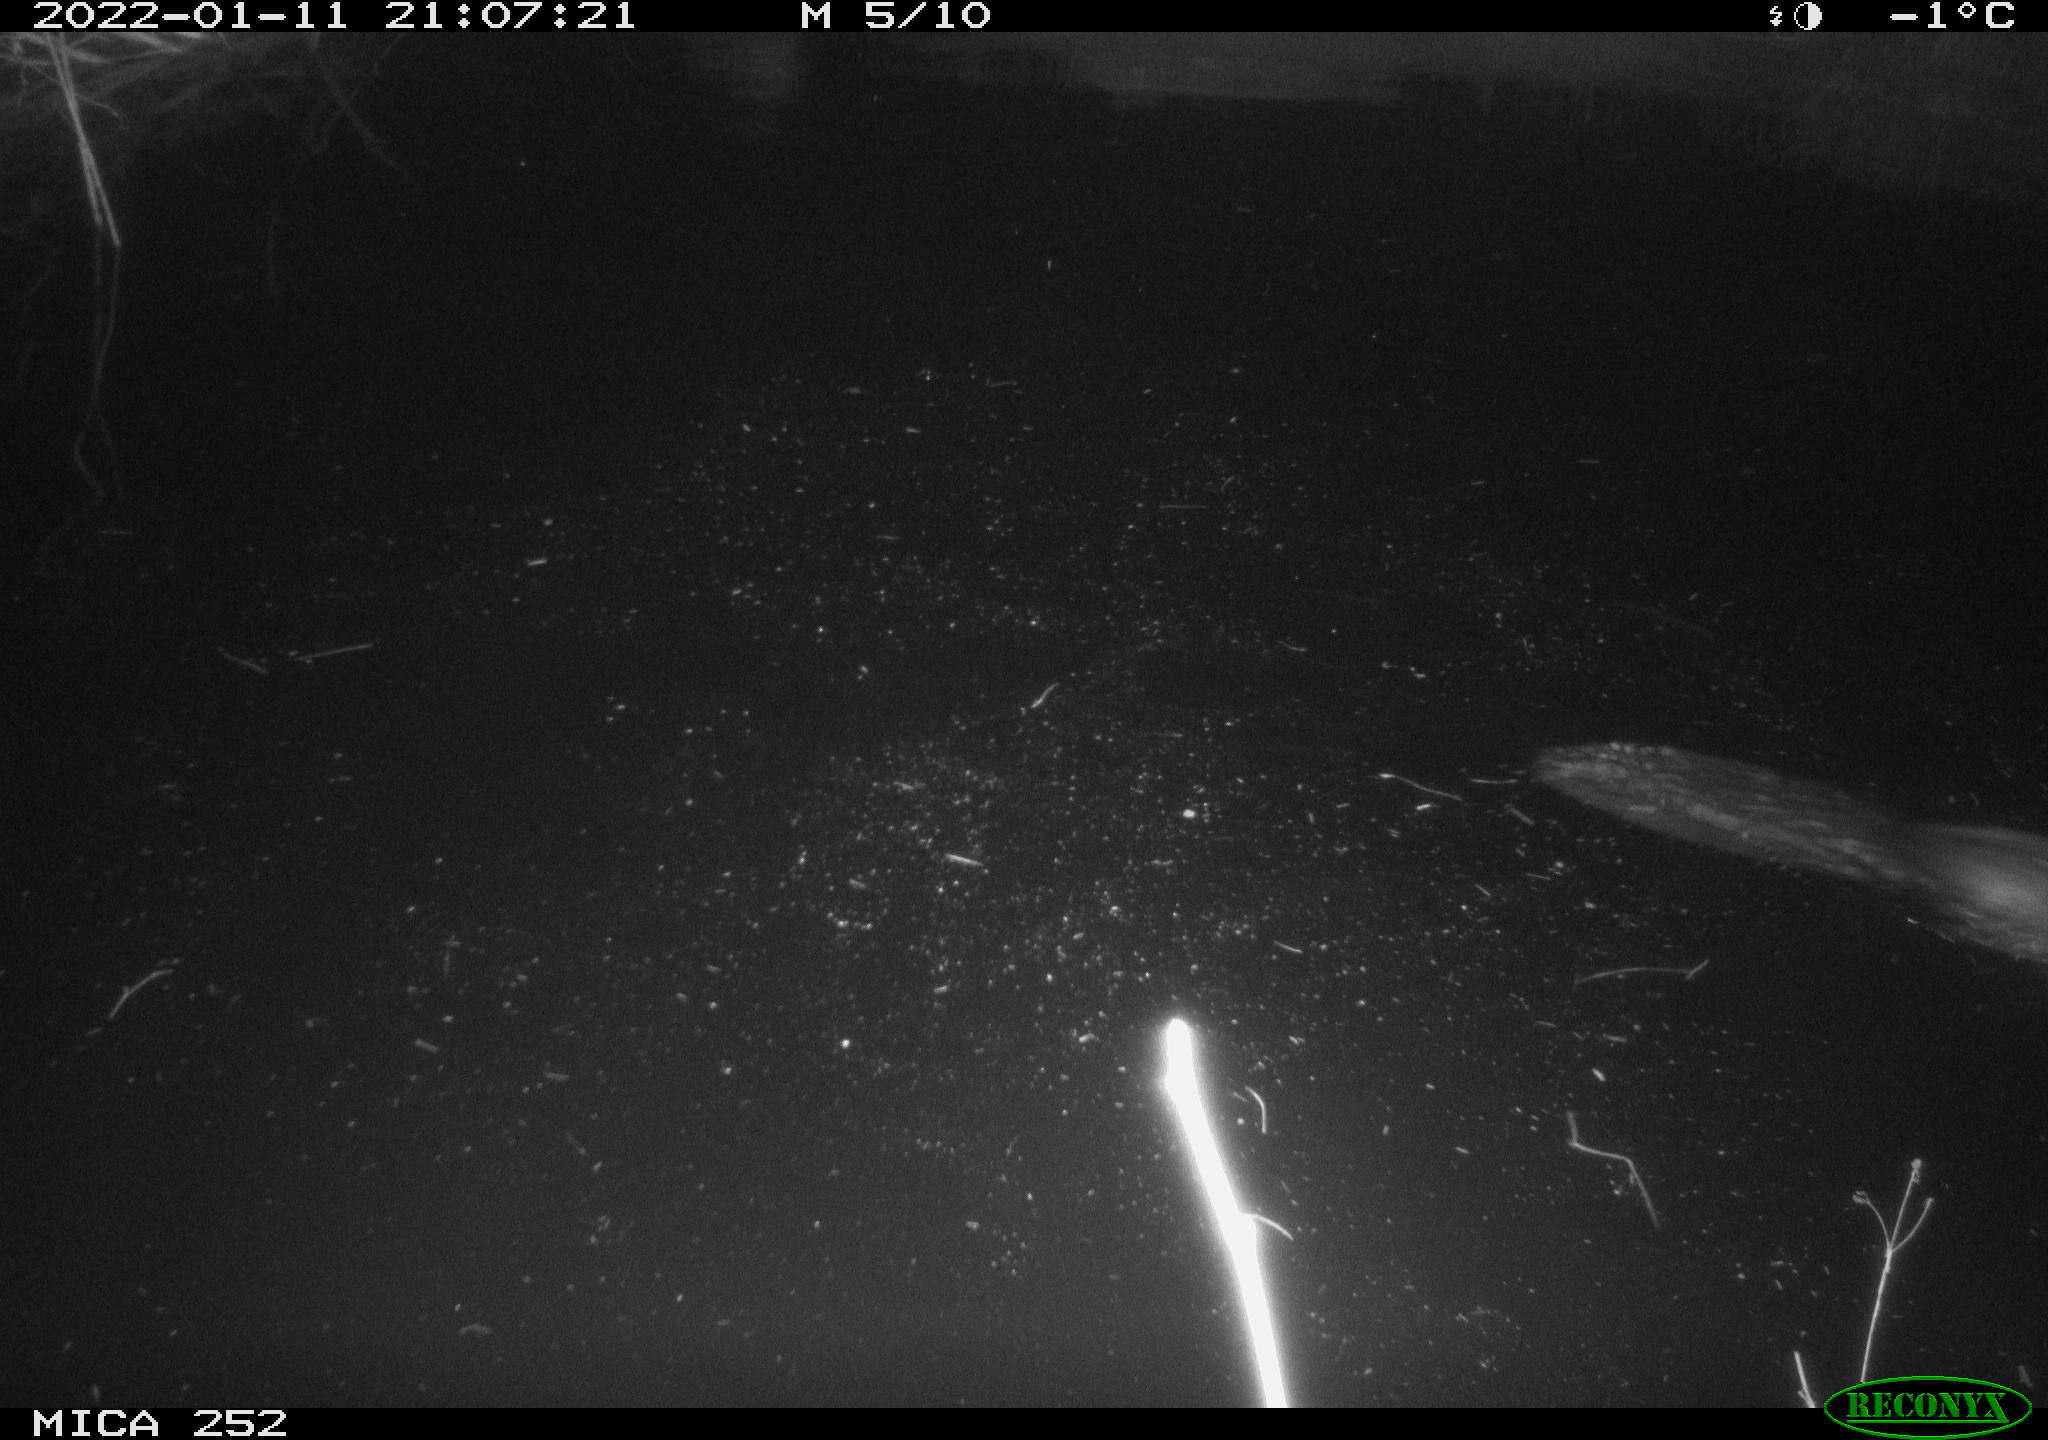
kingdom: Animalia
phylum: Chordata
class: Mammalia
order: Rodentia
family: Castoridae
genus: Castor
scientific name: Castor fiber
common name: Eurasian beaver
